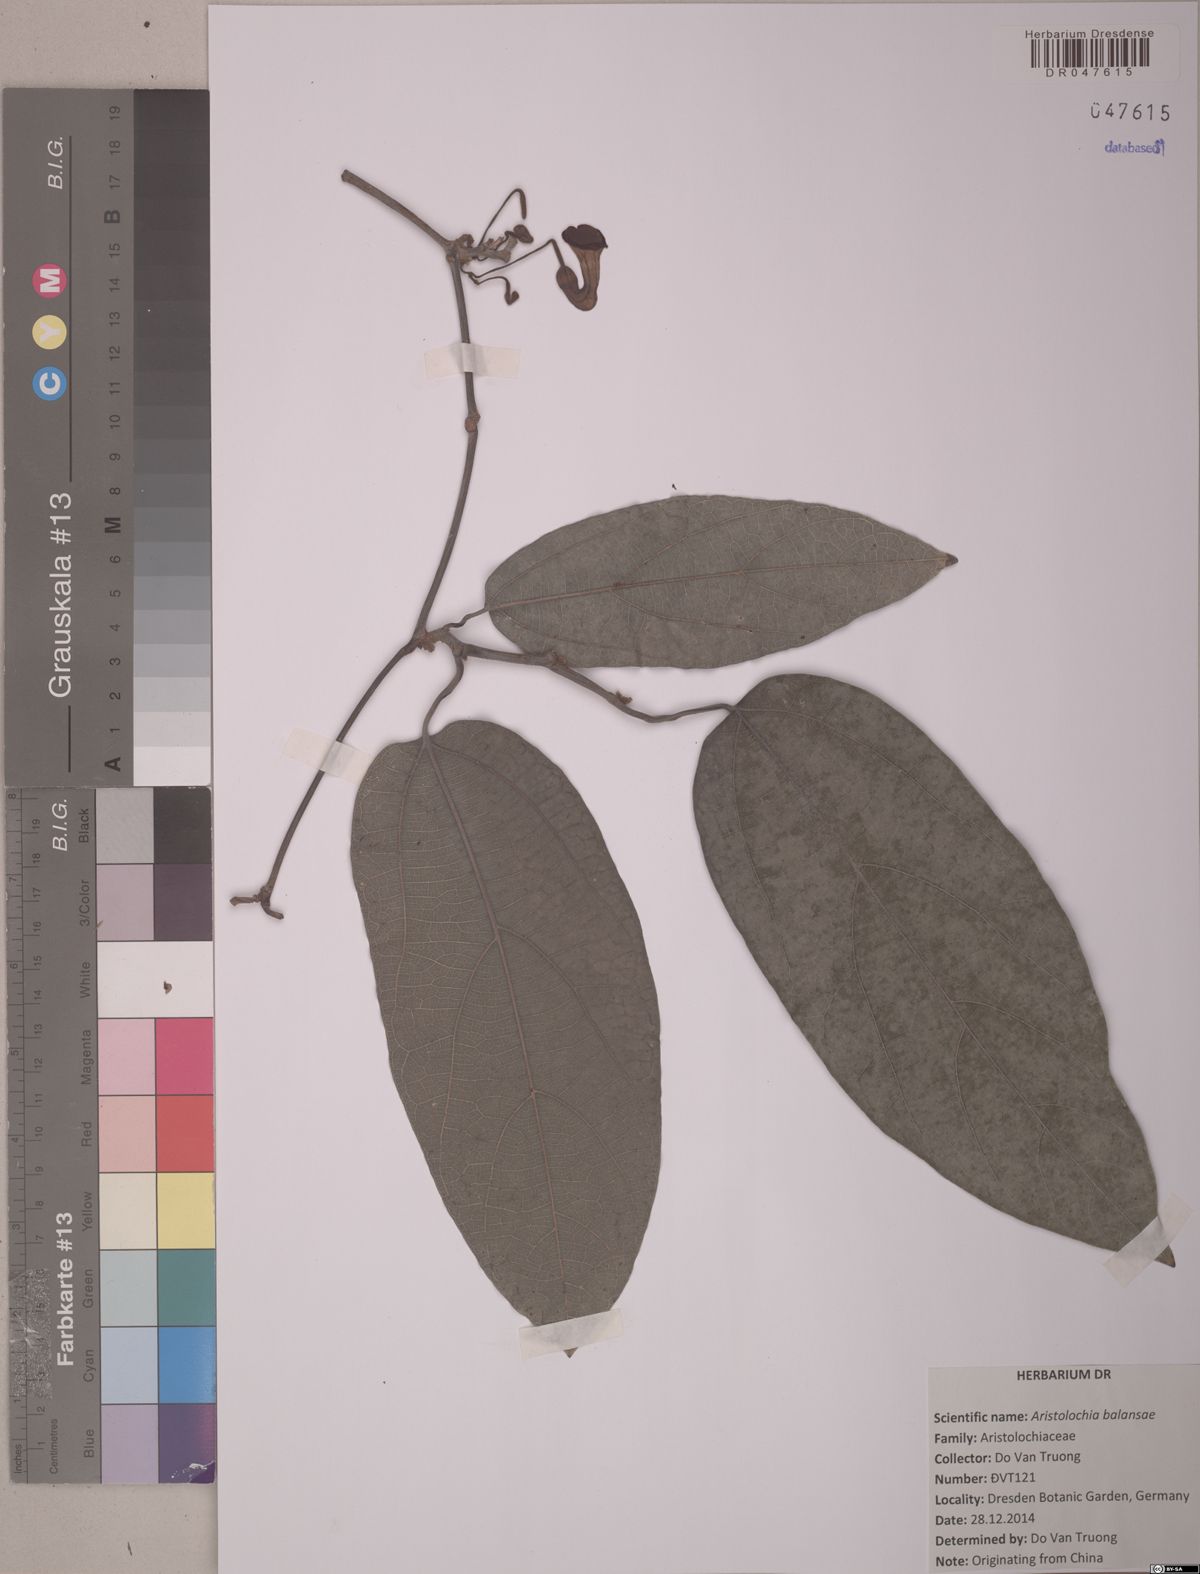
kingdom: Plantae
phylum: Tracheophyta
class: Magnoliopsida
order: Piperales
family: Aristolochiaceae
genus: Isotrema
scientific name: Isotrema balansae
